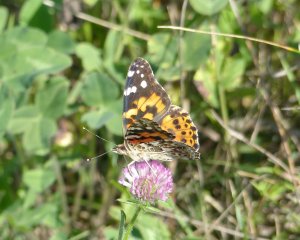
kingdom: Animalia
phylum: Arthropoda
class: Insecta
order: Lepidoptera
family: Nymphalidae
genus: Vanessa
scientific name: Vanessa cardui
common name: Painted Lady
